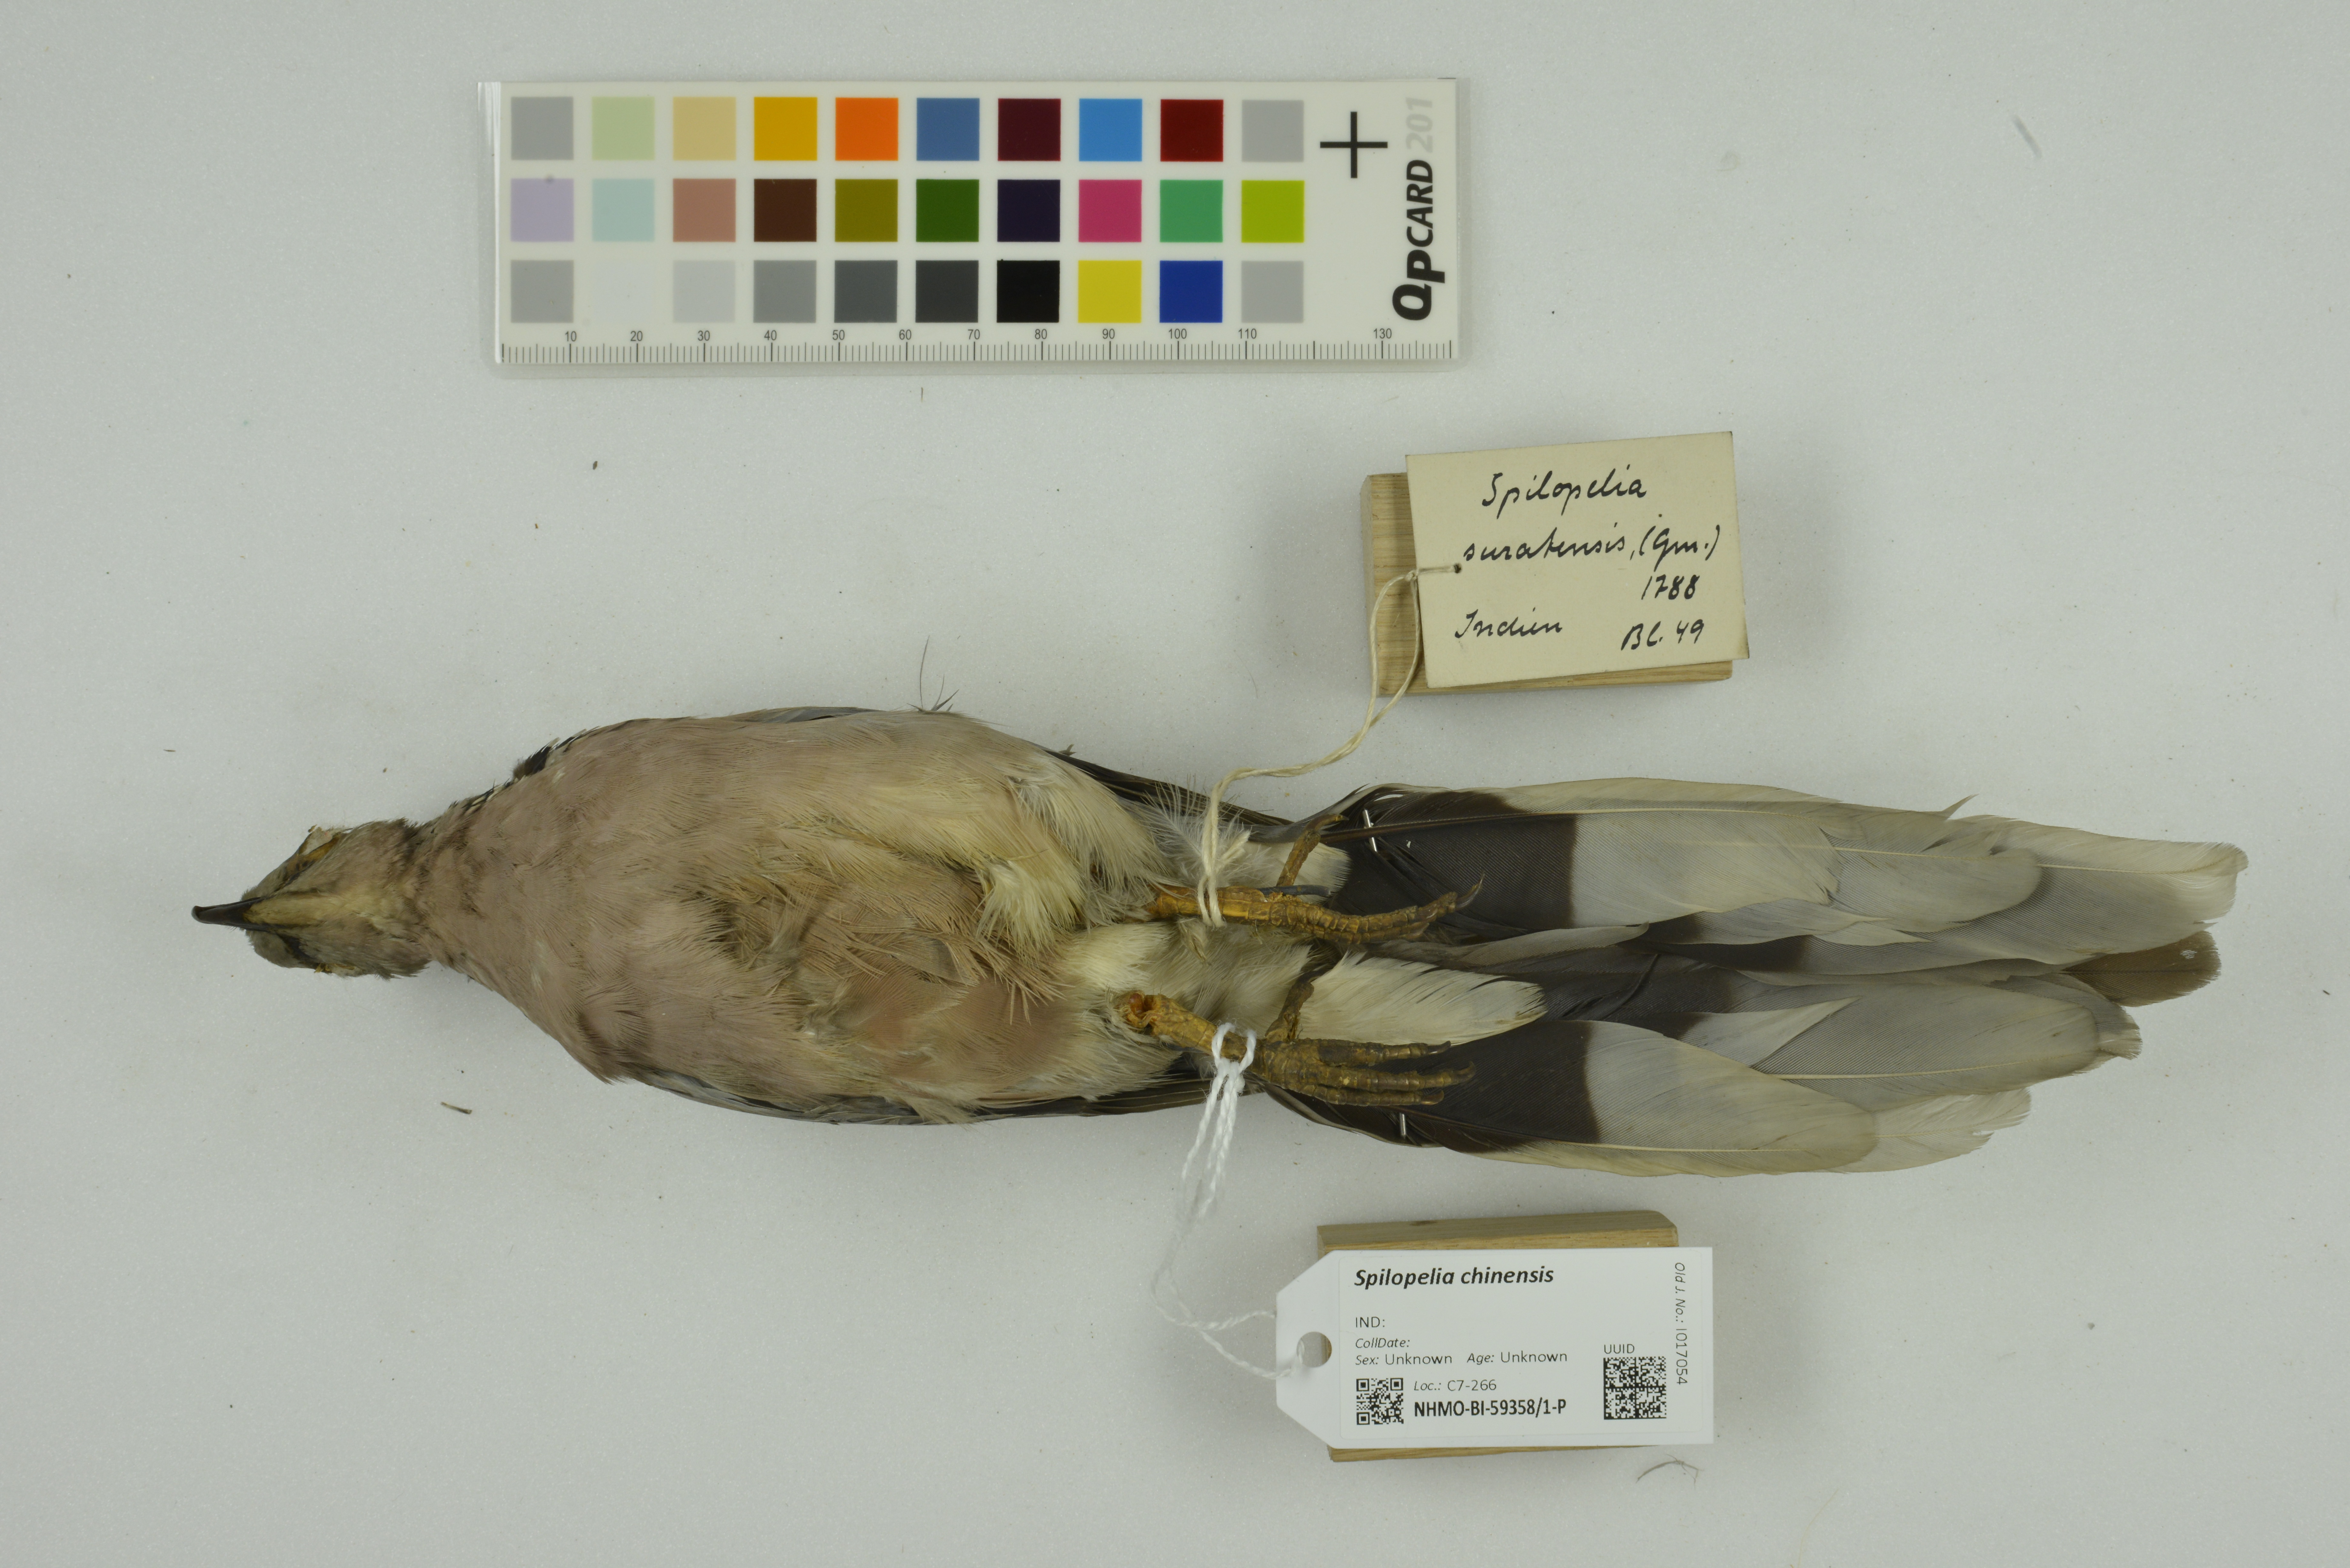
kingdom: Animalia
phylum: Chordata
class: Aves
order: Columbiformes
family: Columbidae
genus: Spilopelia
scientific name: Spilopelia chinensis
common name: Spotted dove
